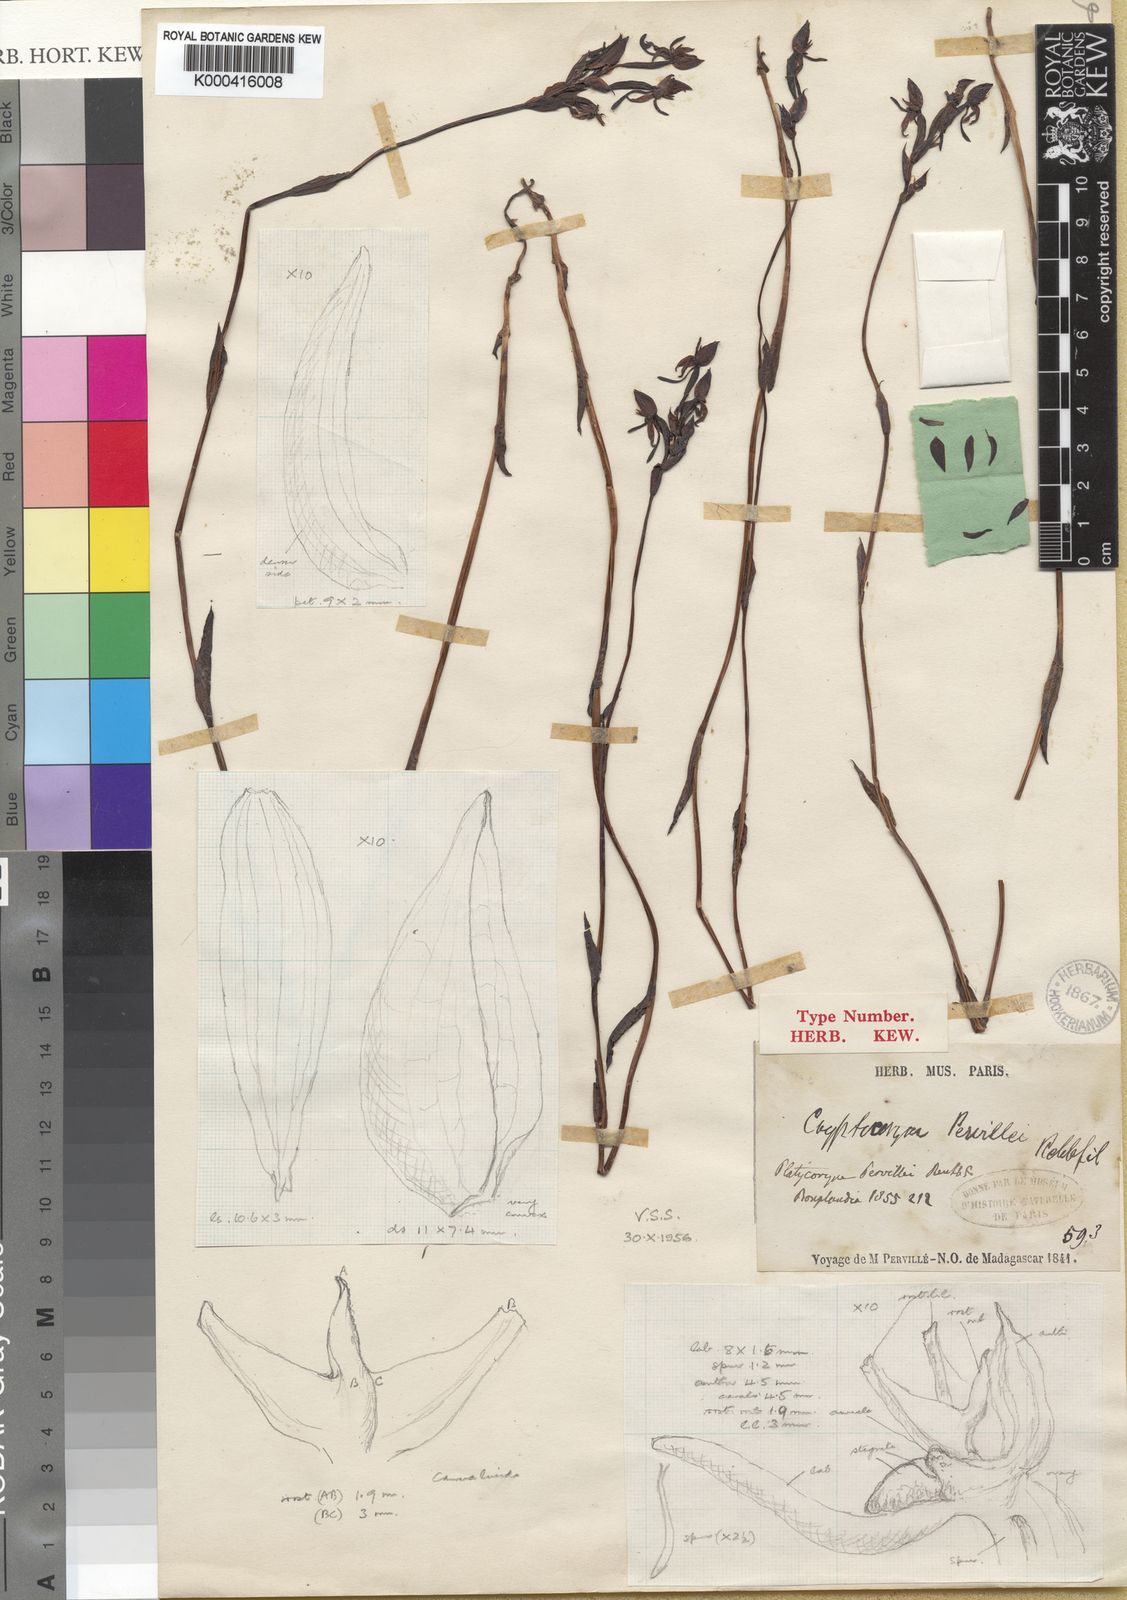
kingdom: Plantae
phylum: Tracheophyta
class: Liliopsida
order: Asparagales
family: Orchidaceae
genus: Platycoryne
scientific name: Platycoryne pervillei
